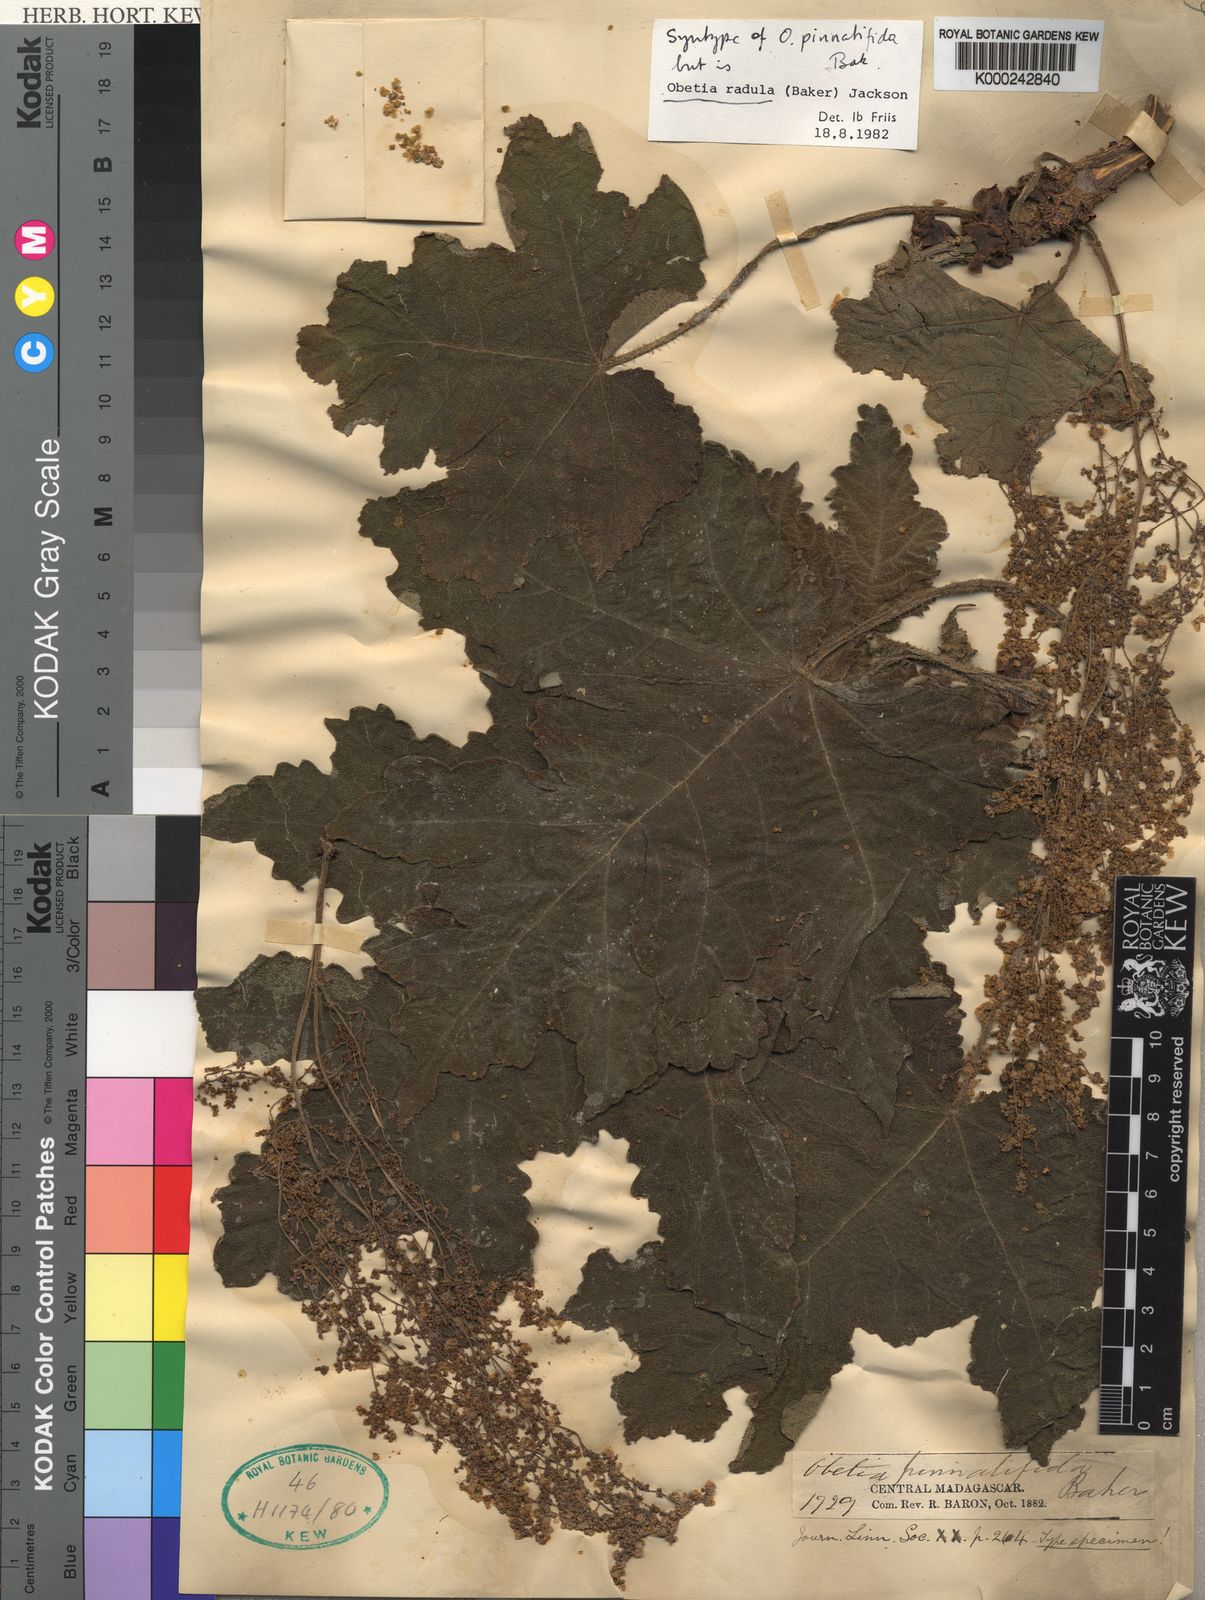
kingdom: Plantae
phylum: Tracheophyta
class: Magnoliopsida
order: Rosales
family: Urticaceae
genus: Obetia
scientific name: Obetia radula
